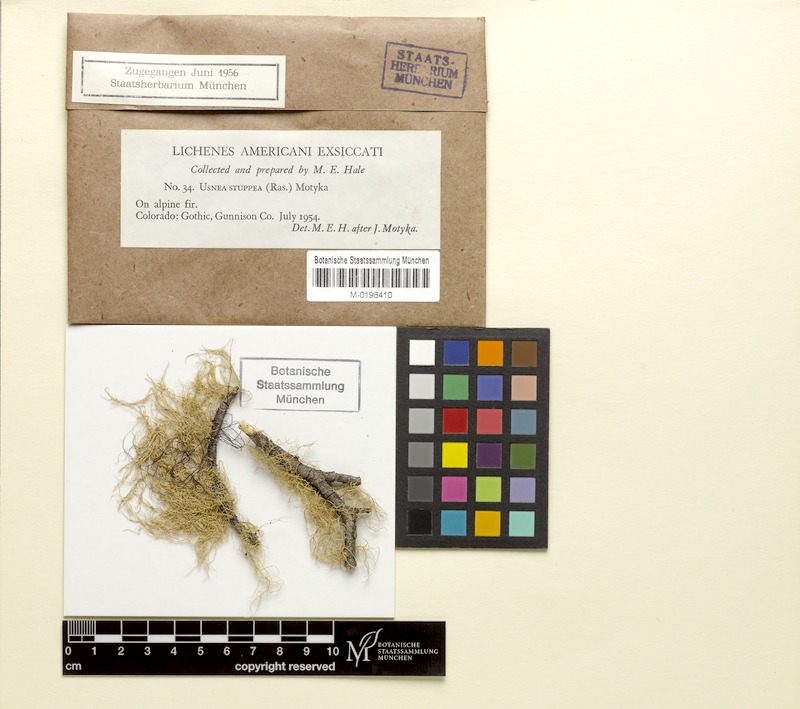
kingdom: Fungi
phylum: Ascomycota
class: Lecanoromycetes
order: Lecanorales
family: Parmeliaceae
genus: Usnea
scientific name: Usnea stuppea
